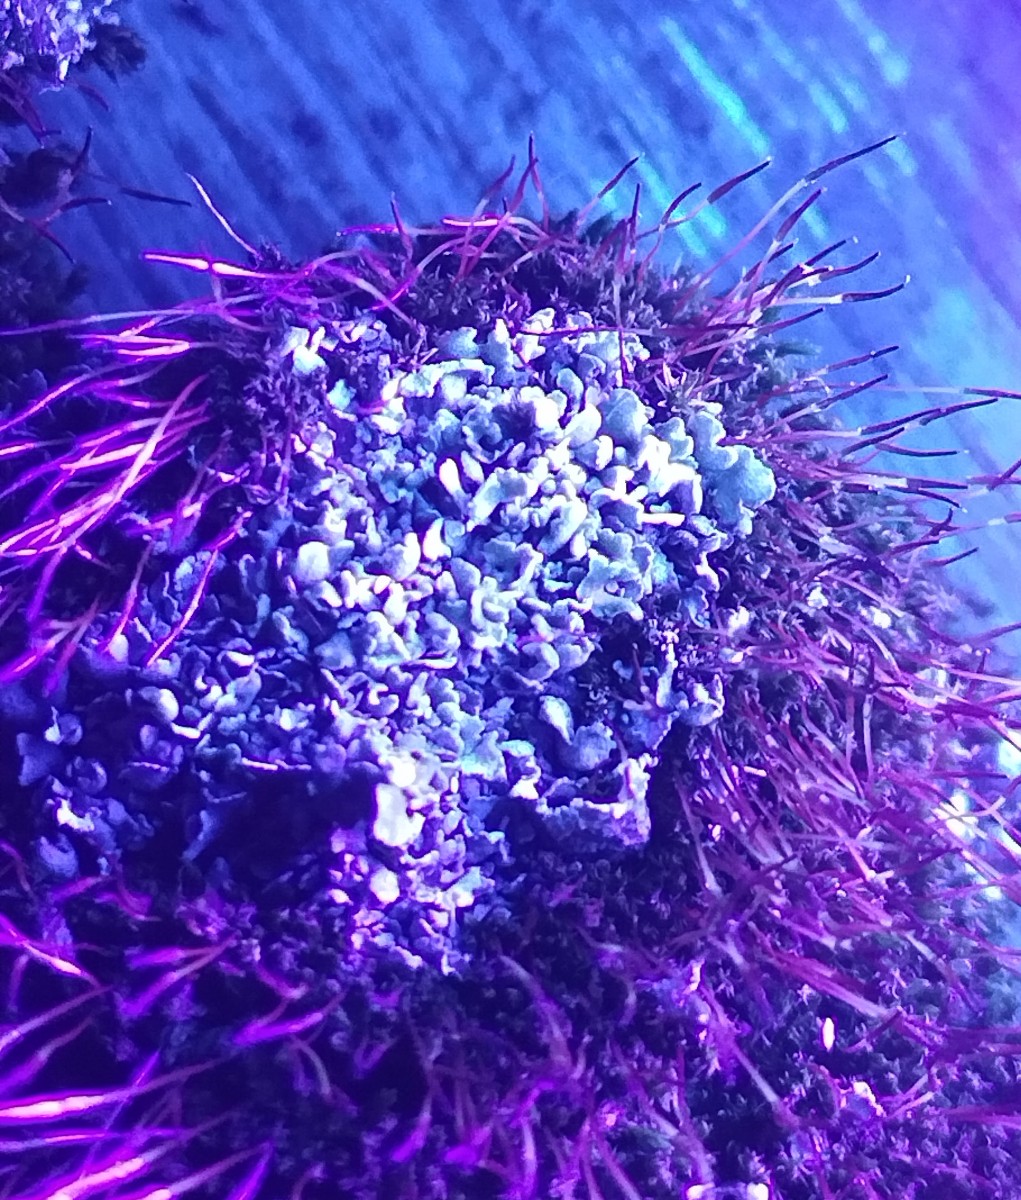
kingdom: Fungi
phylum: Ascomycota
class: Lecanoromycetes
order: Lecanorales
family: Cladoniaceae
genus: Cladonia
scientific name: Cladonia
